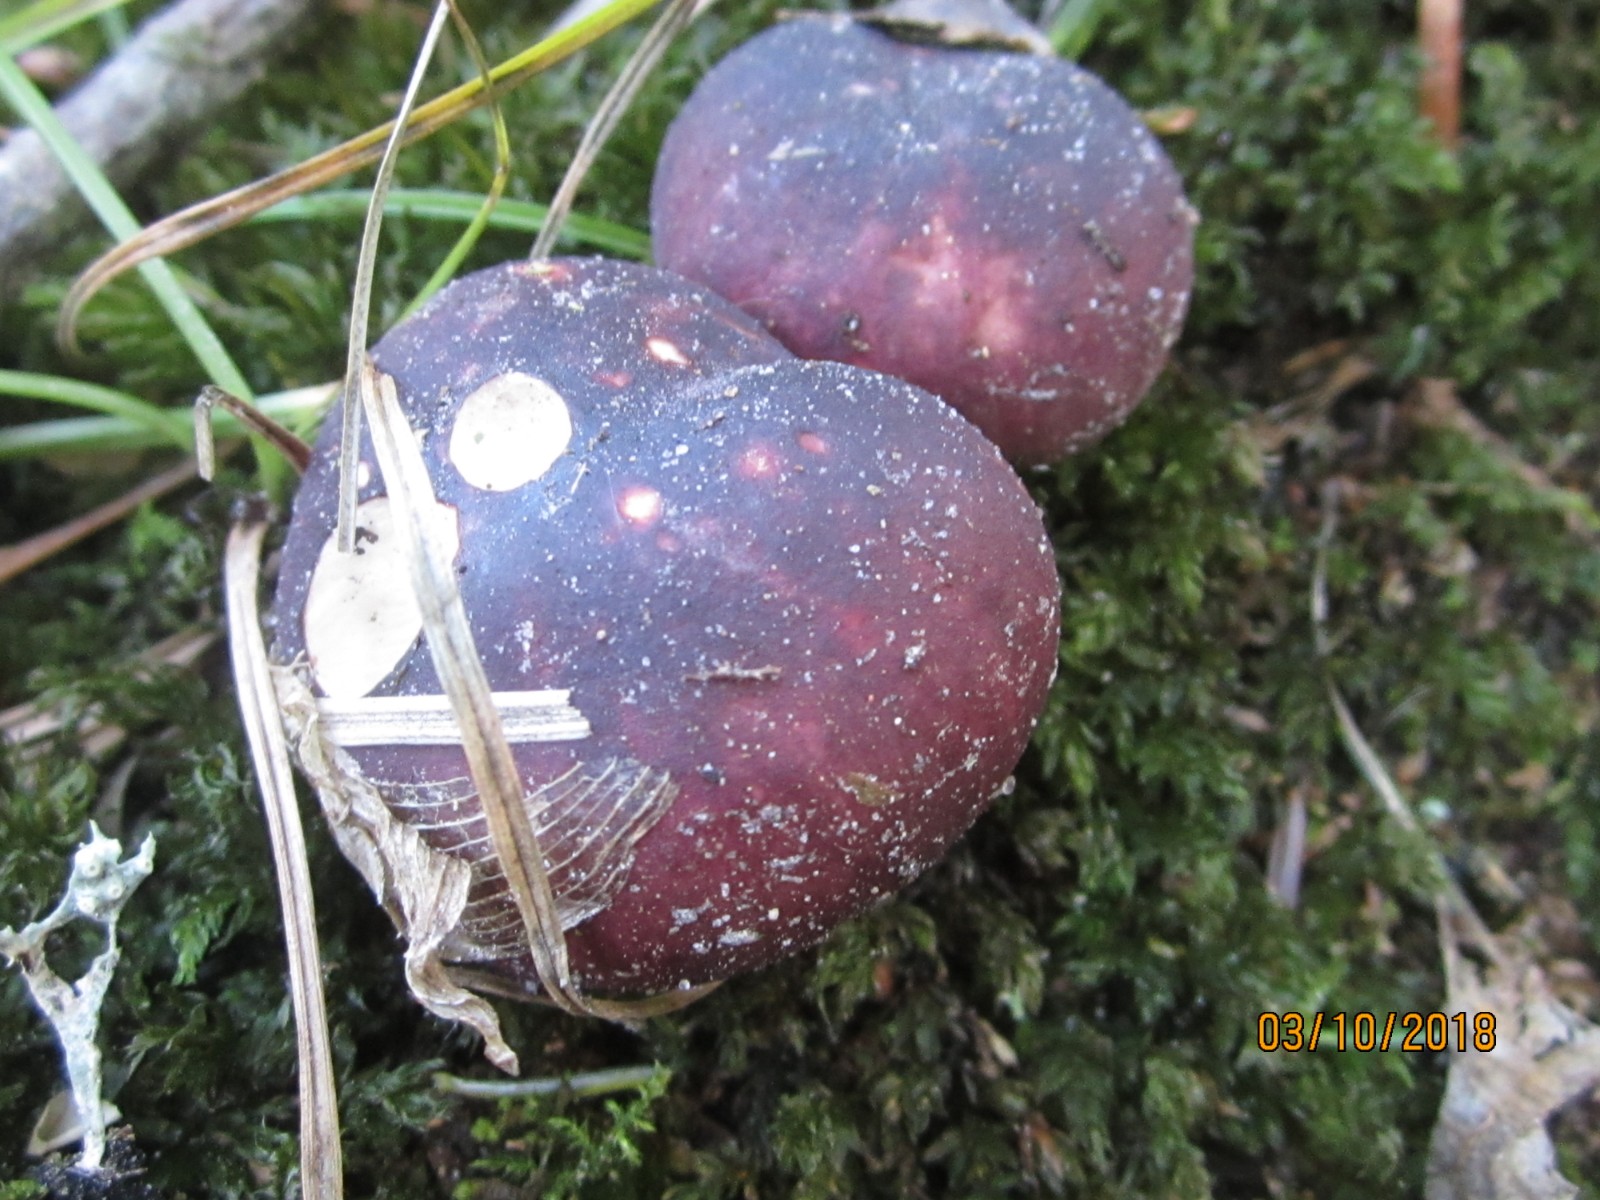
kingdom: Fungi
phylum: Basidiomycota
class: Agaricomycetes
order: Russulales
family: Russulaceae
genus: Russula
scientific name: Russula fragilis
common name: savbladet skørhat
